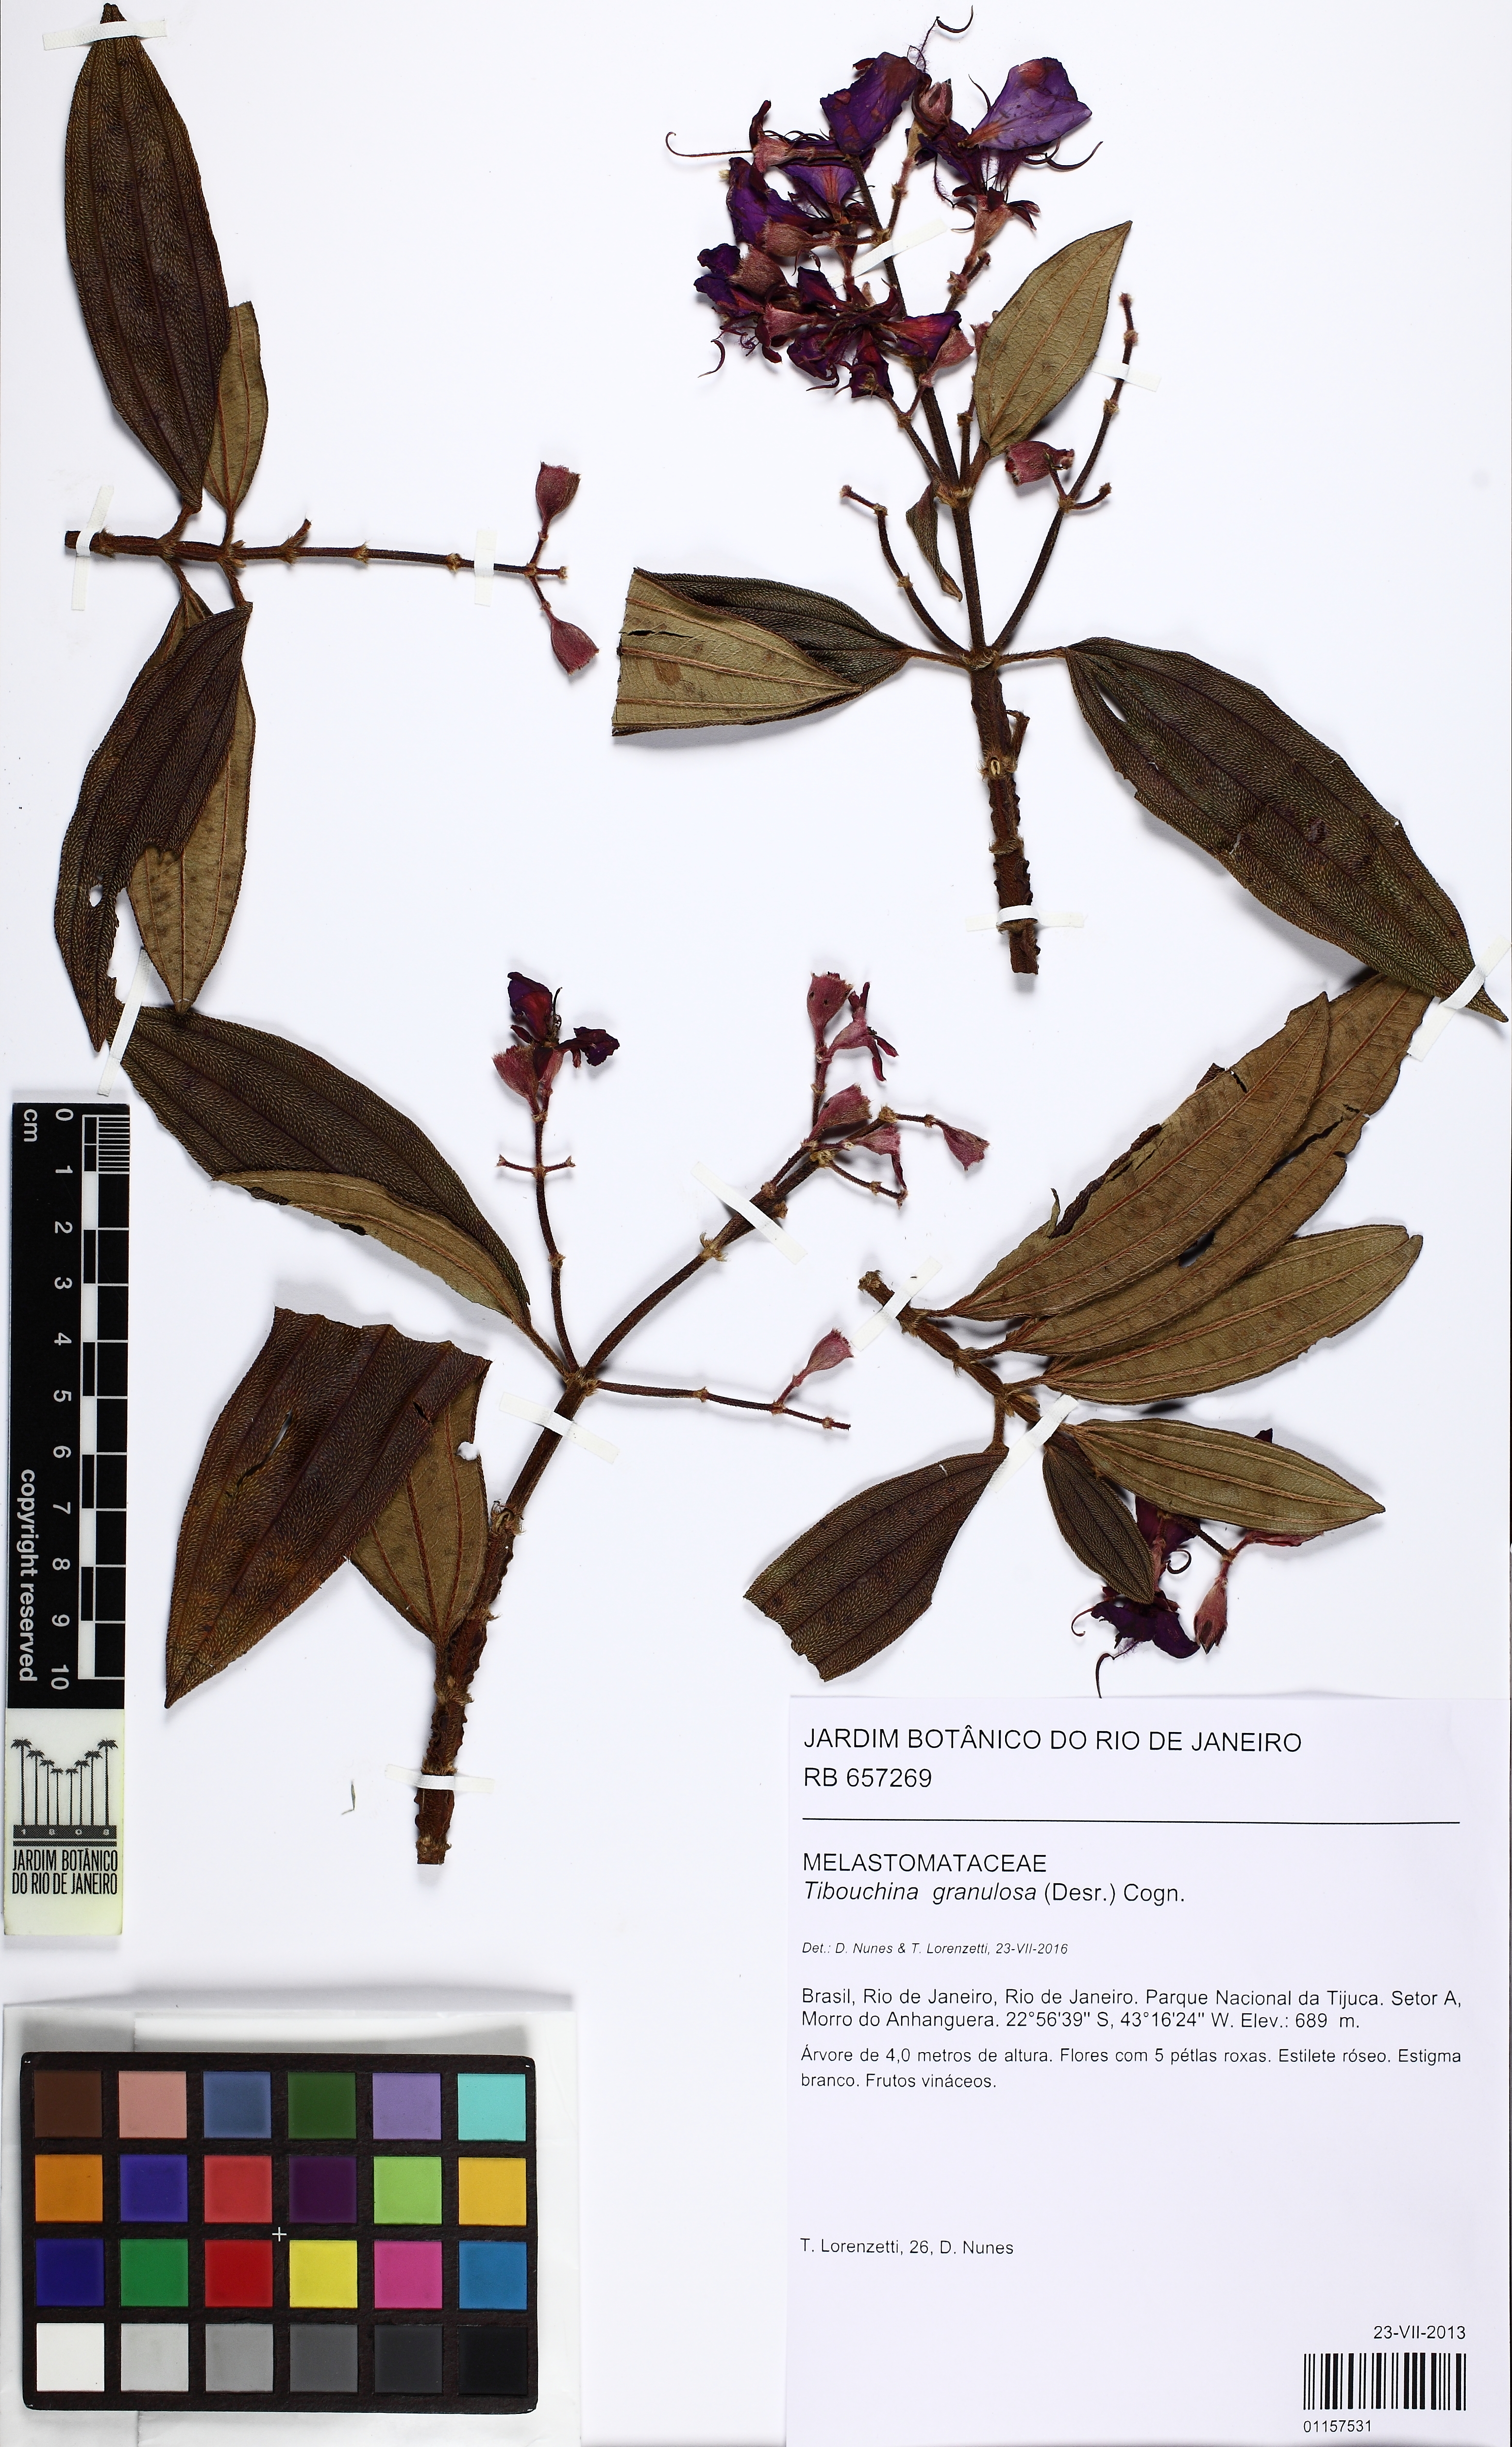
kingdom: Plantae
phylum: Tracheophyta
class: Magnoliopsida
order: Myrtales
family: Melastomataceae
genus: Pleroma
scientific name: Pleroma granulosum
